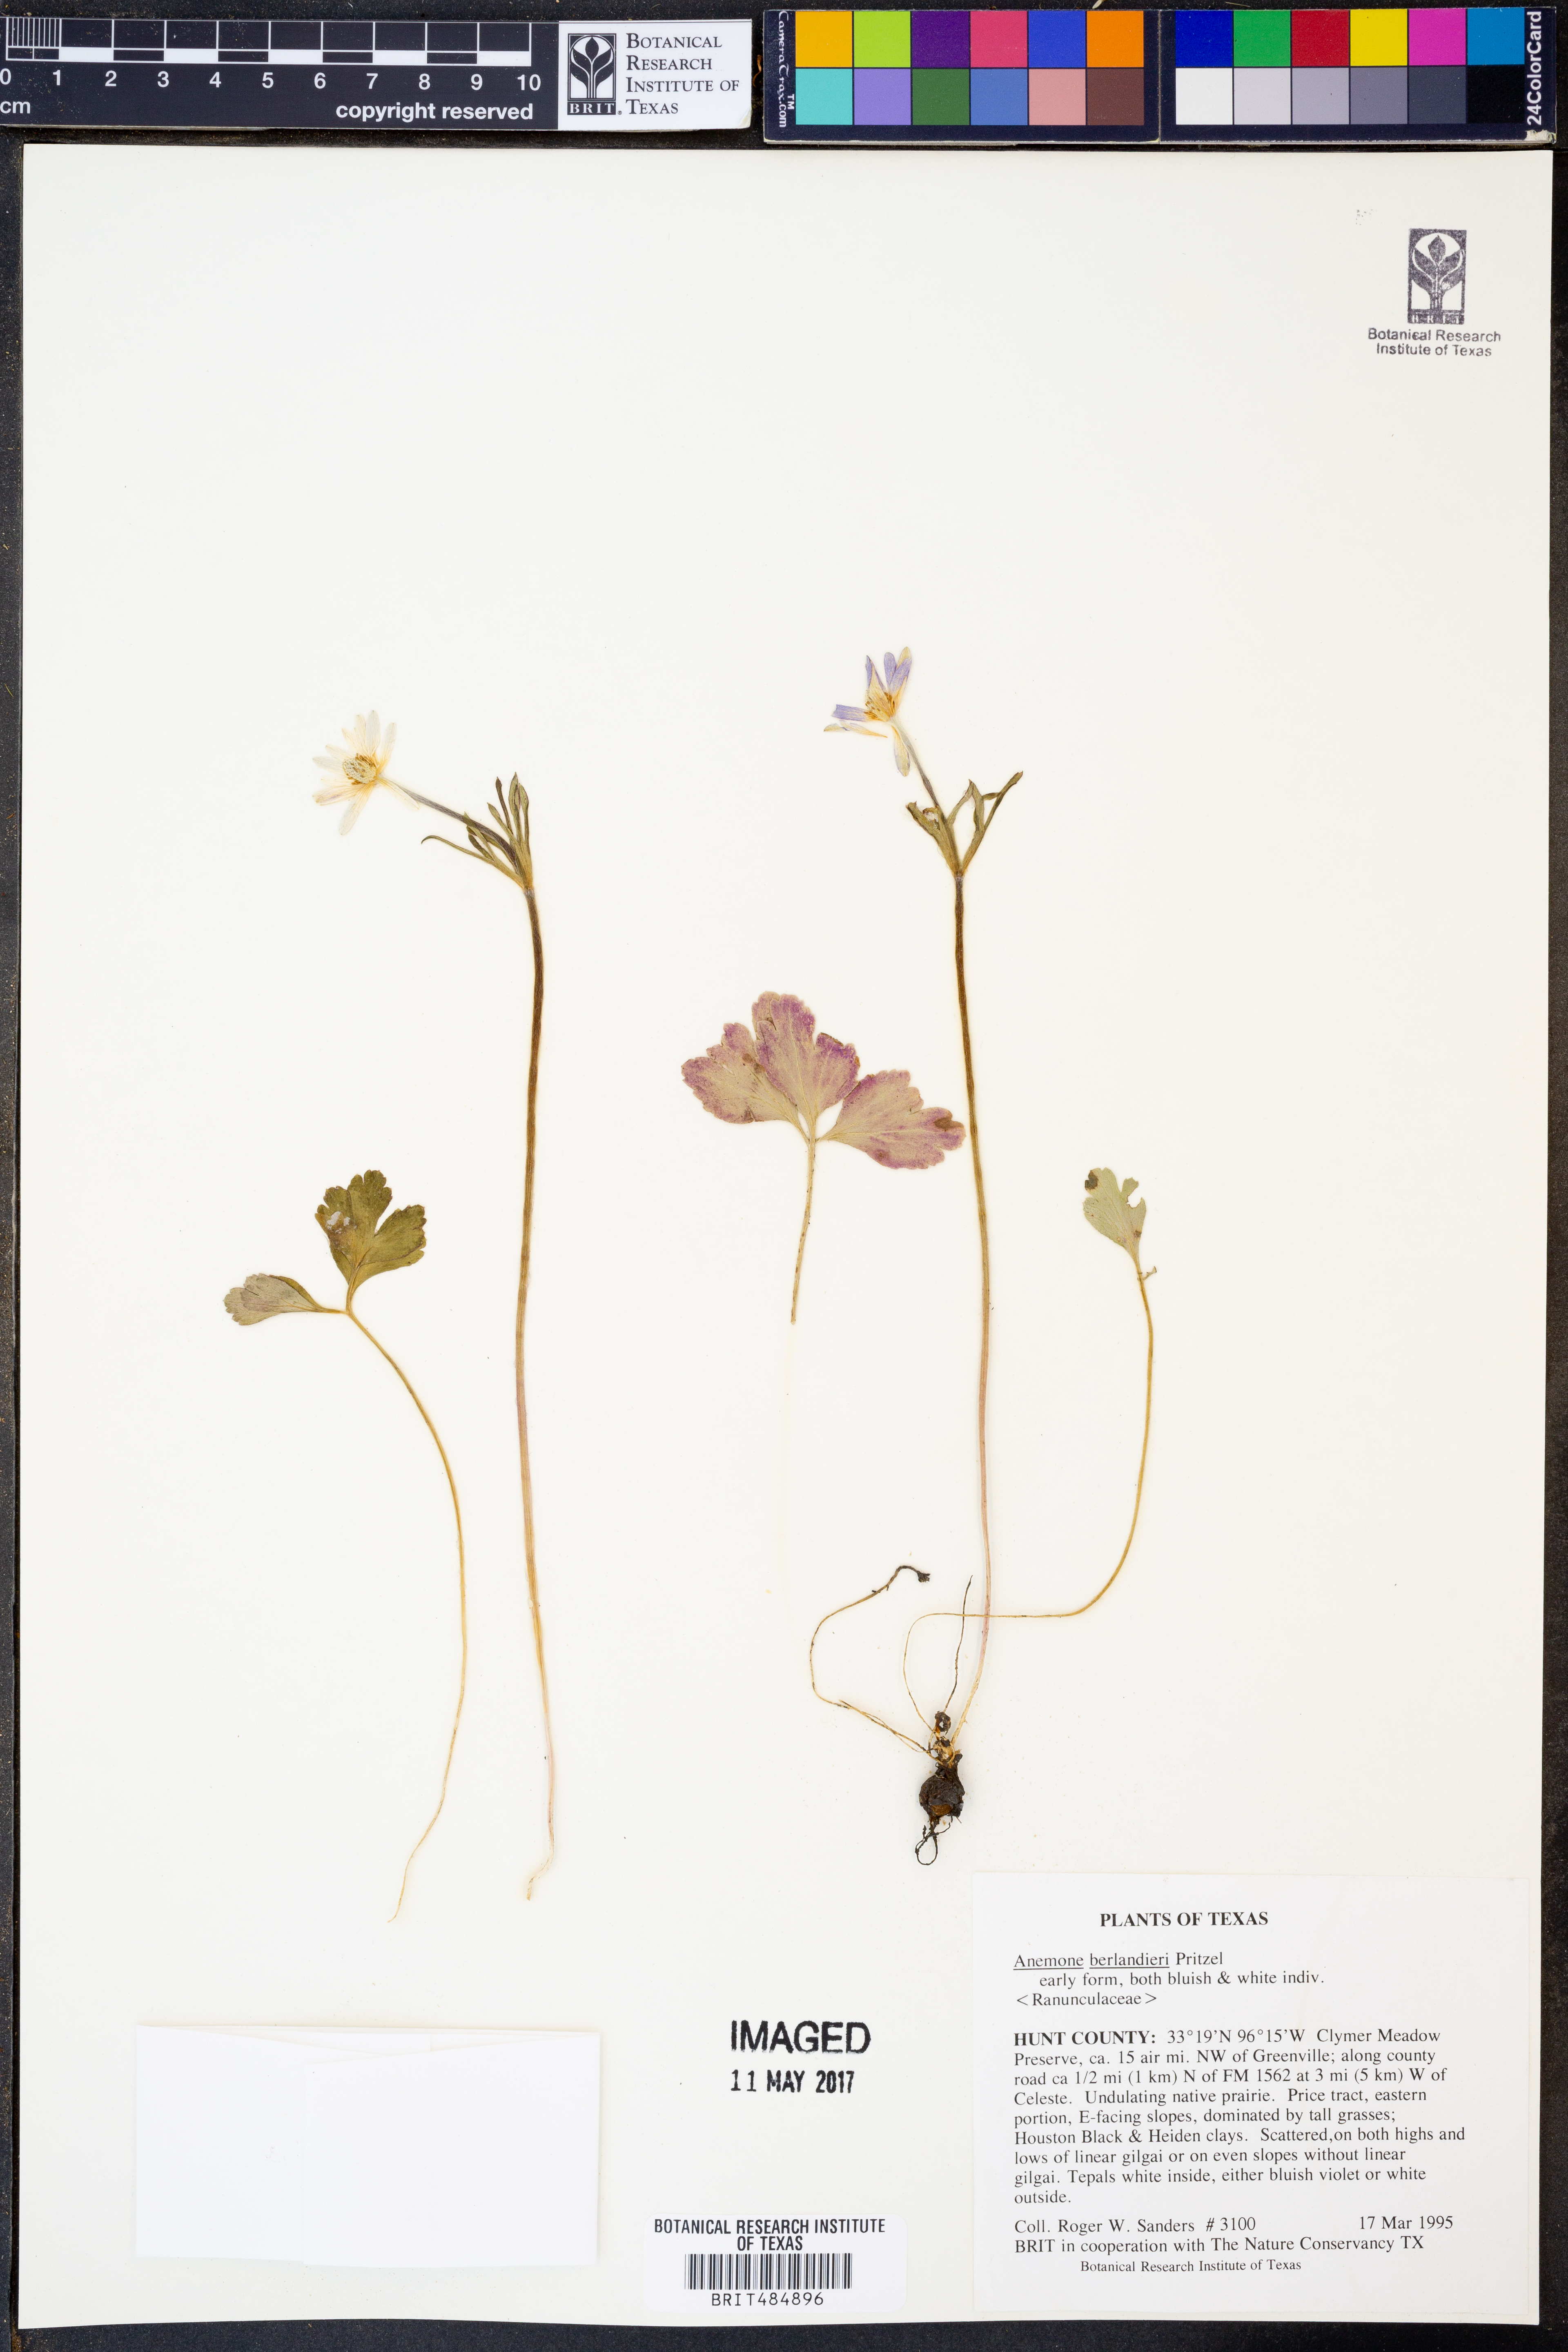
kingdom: Plantae
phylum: Tracheophyta
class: Magnoliopsida
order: Ranunculales
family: Ranunculaceae
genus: Anemone
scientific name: Anemone berlandieri
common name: Ten-petal anemone
